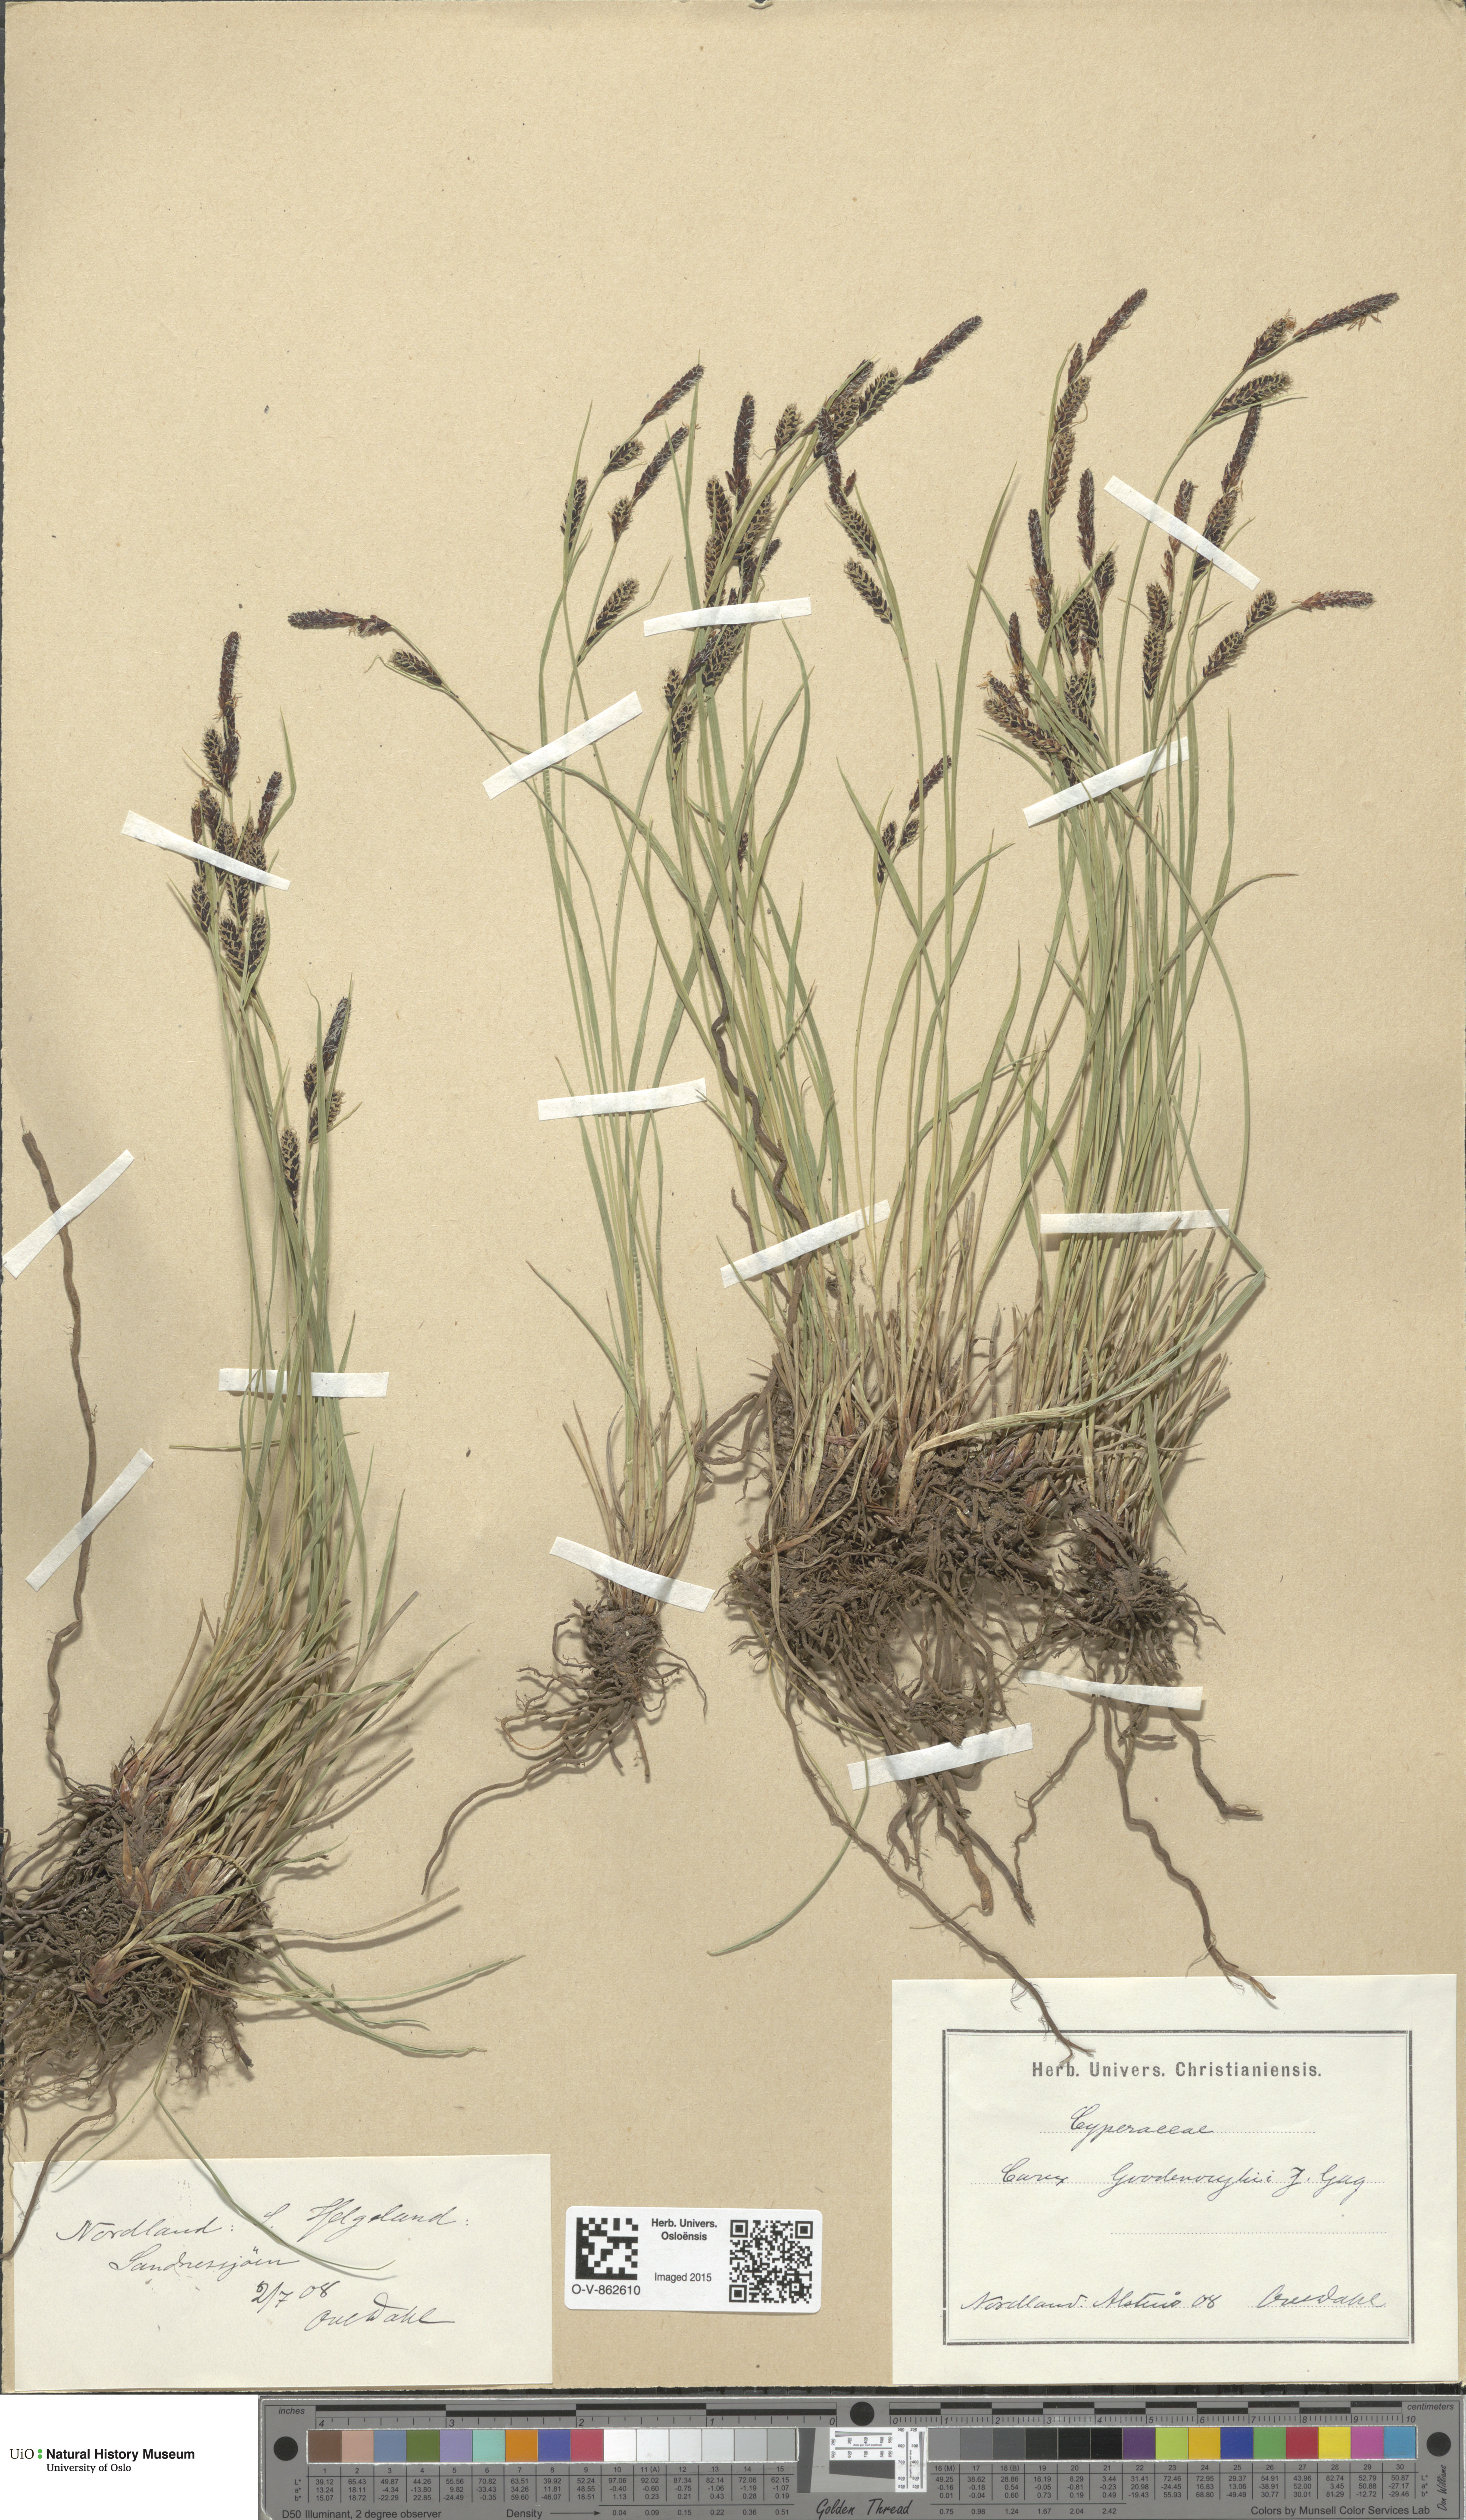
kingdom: Plantae
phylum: Tracheophyta
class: Liliopsida
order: Poales
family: Cyperaceae
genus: Carex
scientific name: Carex nigra
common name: Common sedge
